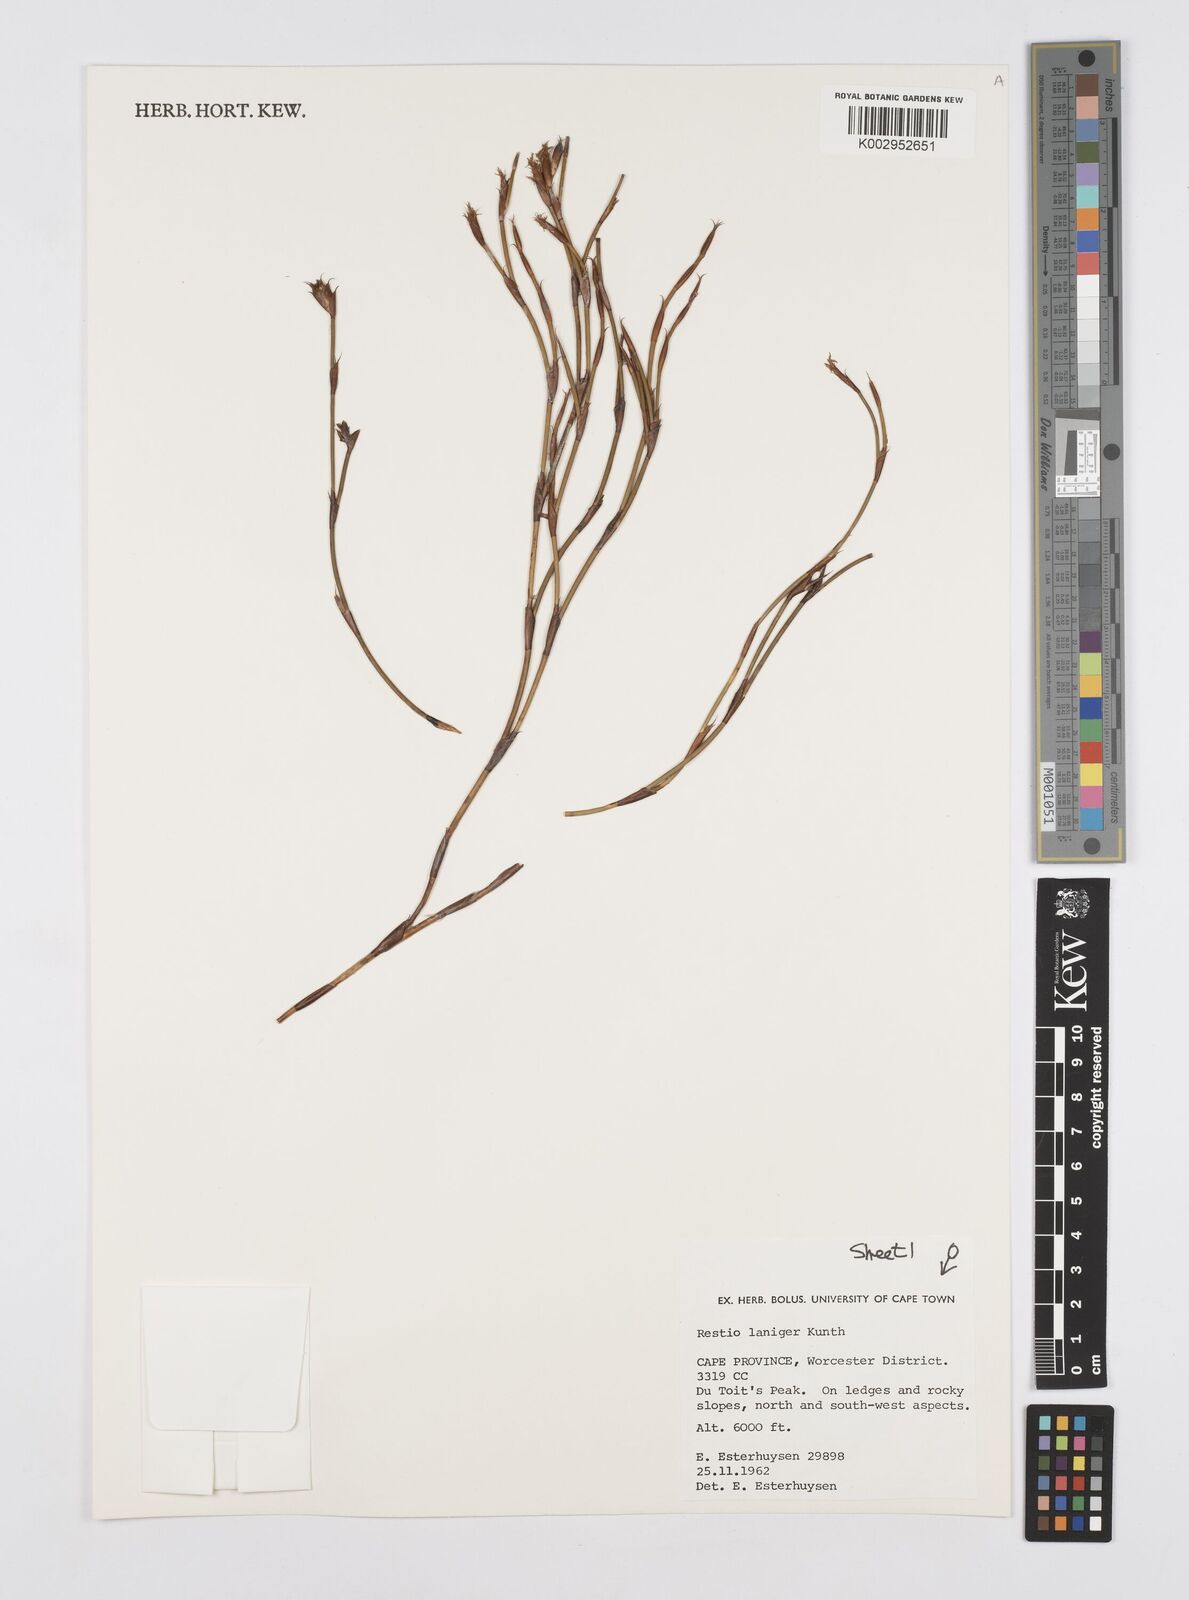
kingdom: Plantae
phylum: Tracheophyta
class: Liliopsida
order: Poales
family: Restionaceae
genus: Restio
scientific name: Restio laniger
